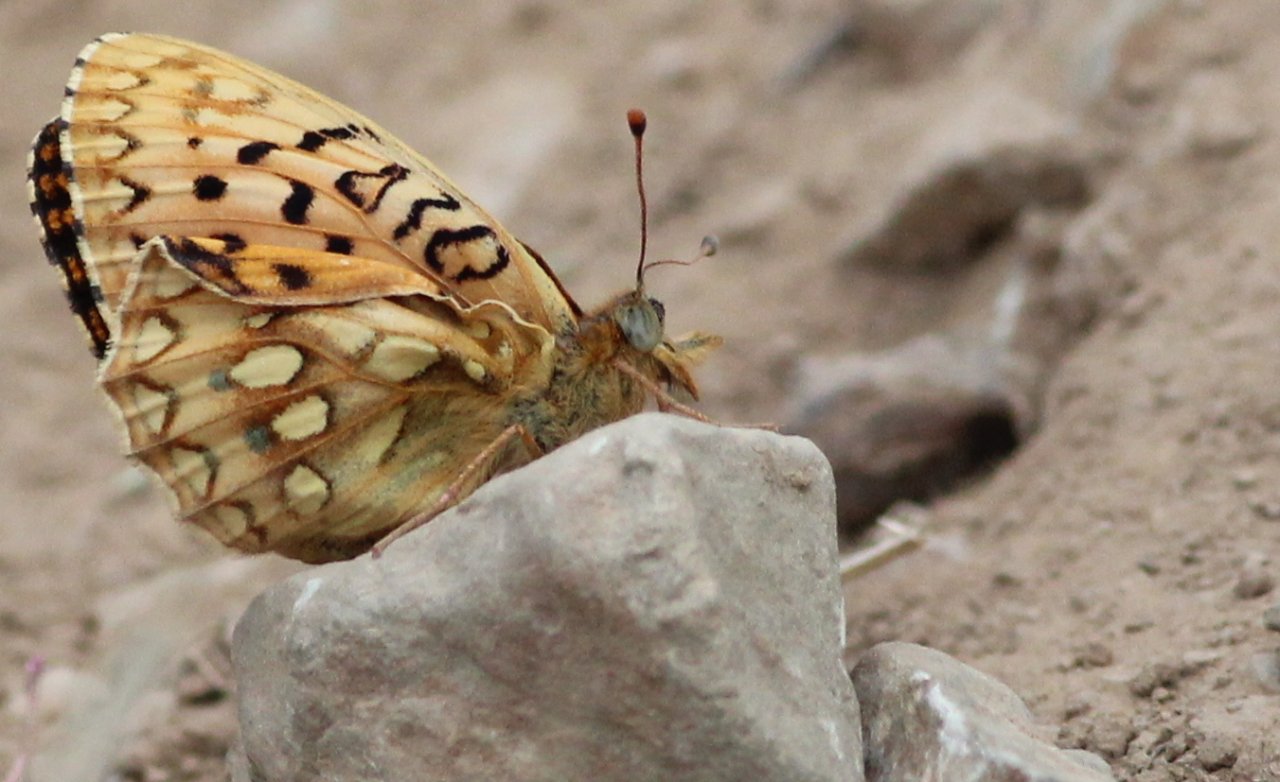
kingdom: Animalia
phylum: Arthropoda
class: Insecta
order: Lepidoptera
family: Nymphalidae
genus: Speyeria
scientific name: Speyeria nokomis
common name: Nokomis Fritillary
